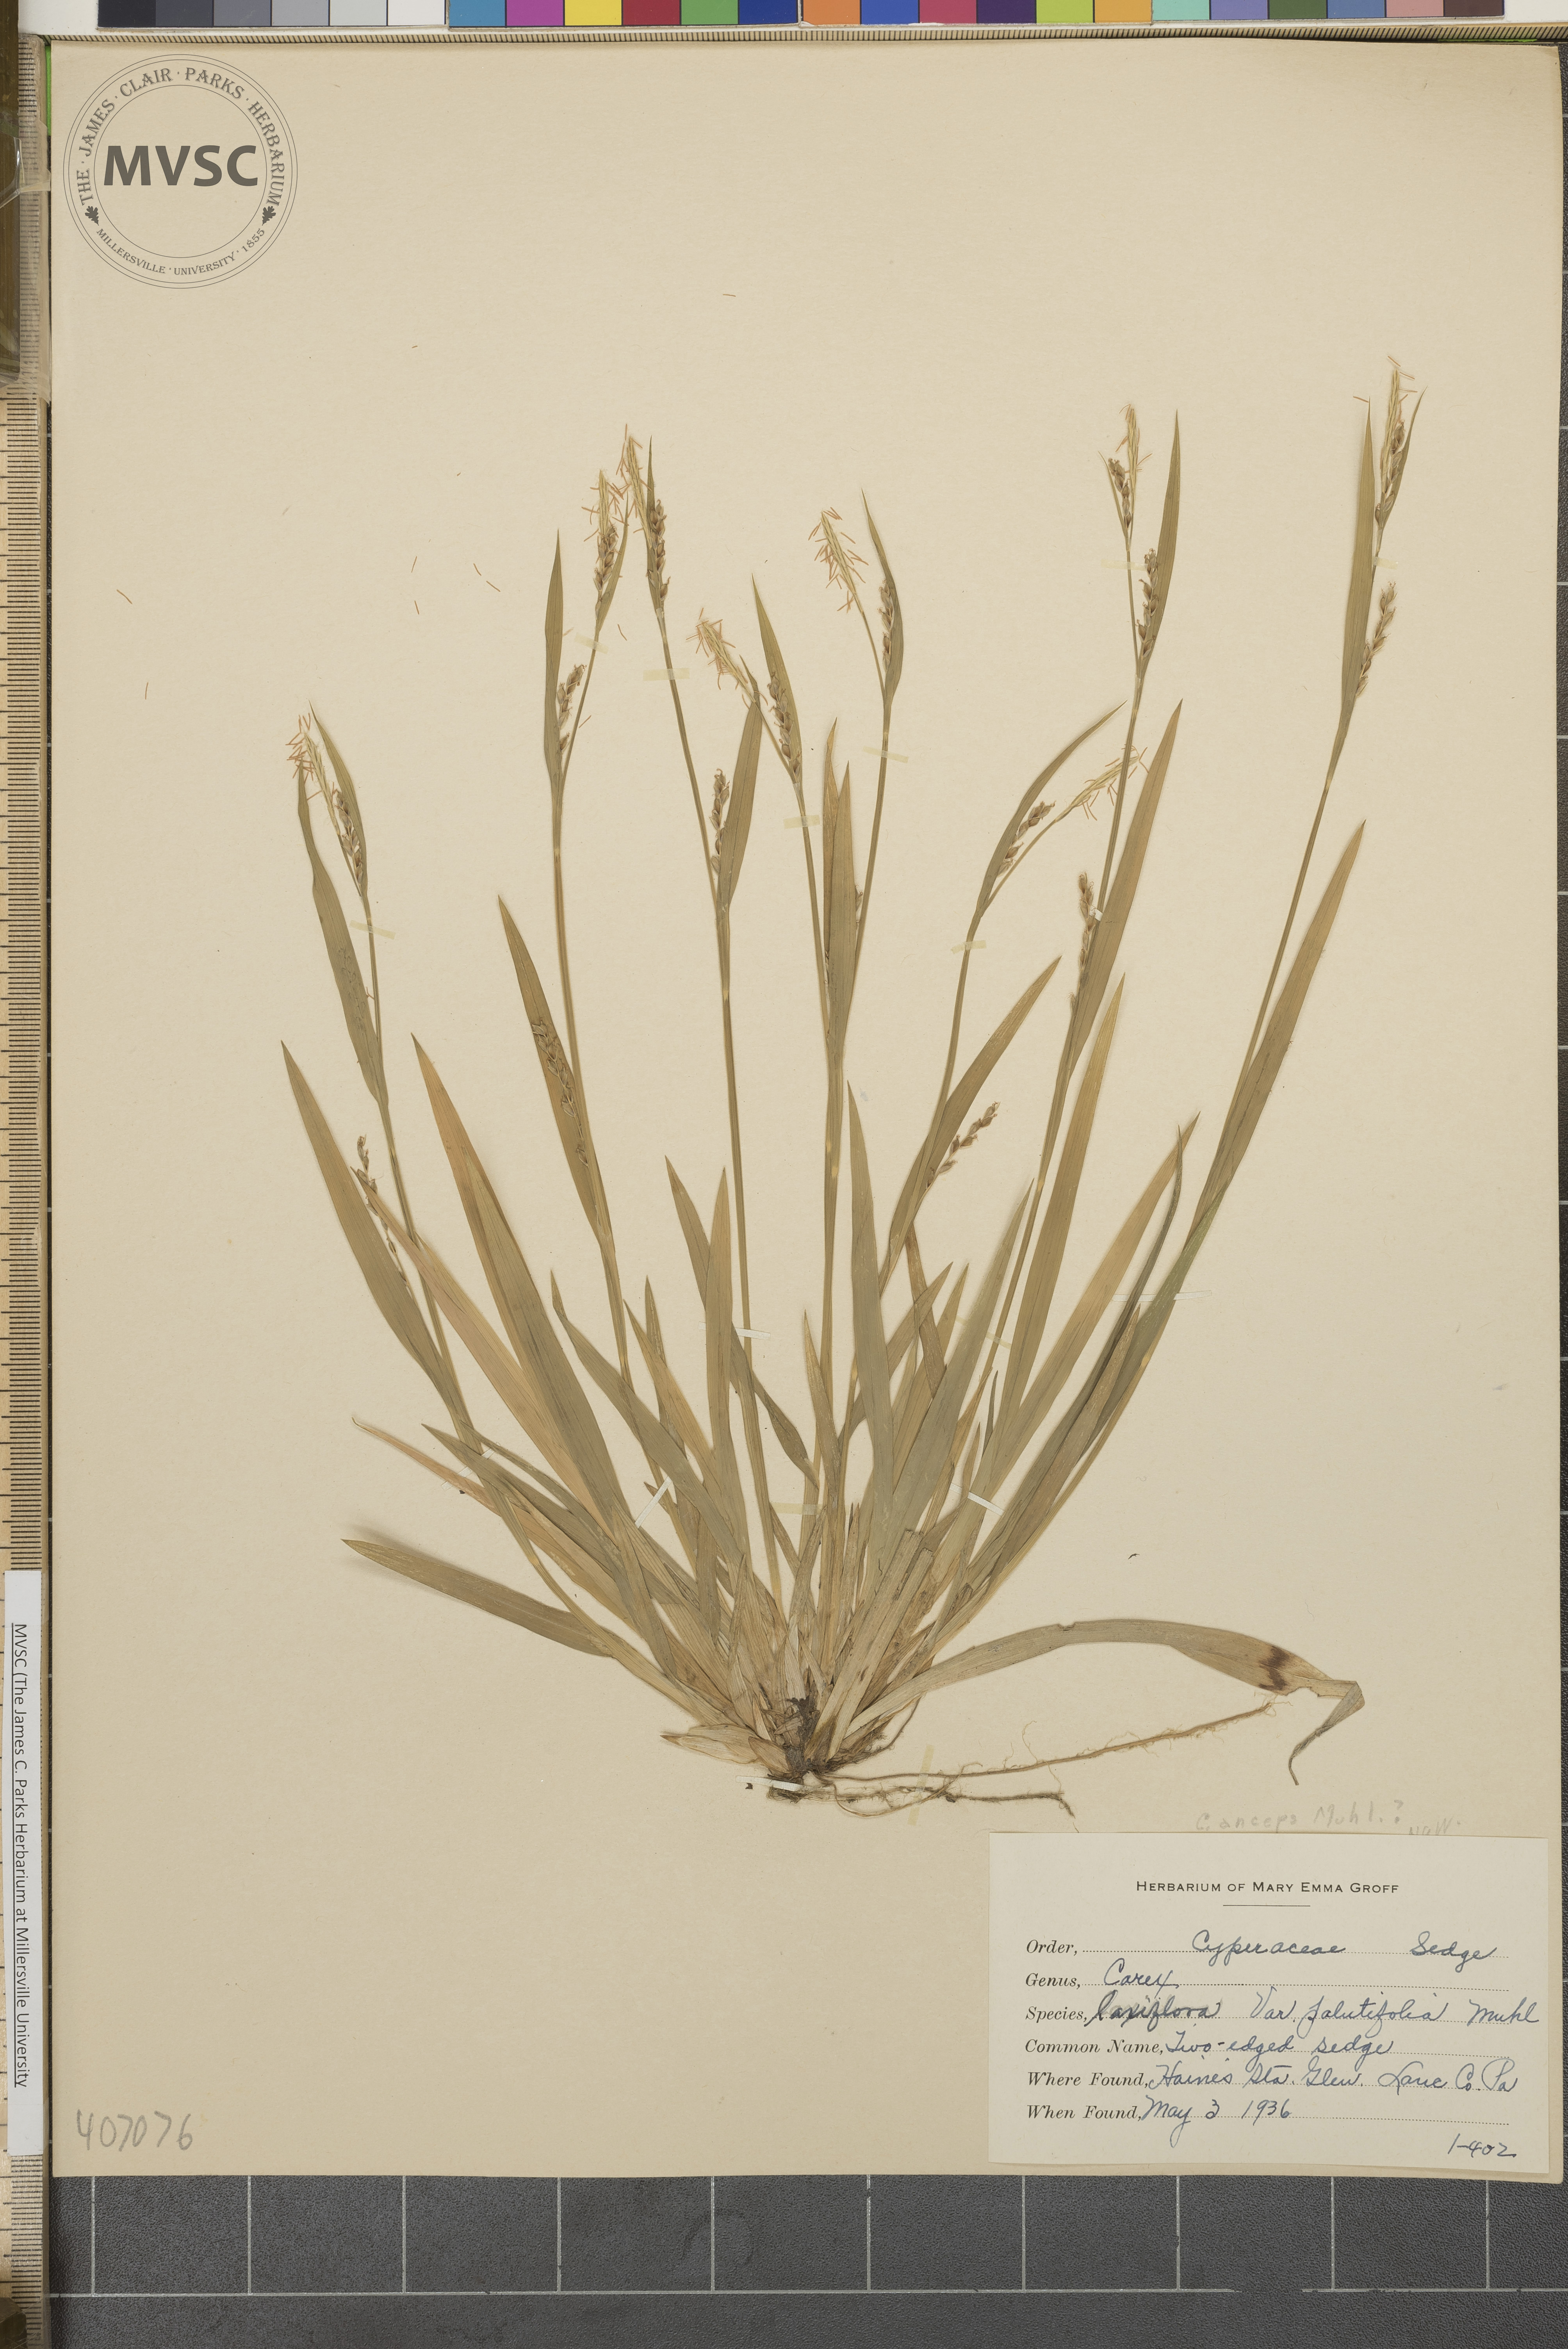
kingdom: Plantae
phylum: Tracheophyta
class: Liliopsida
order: Poales
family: Cyperaceae
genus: Carex
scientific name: Carex laxiflora
